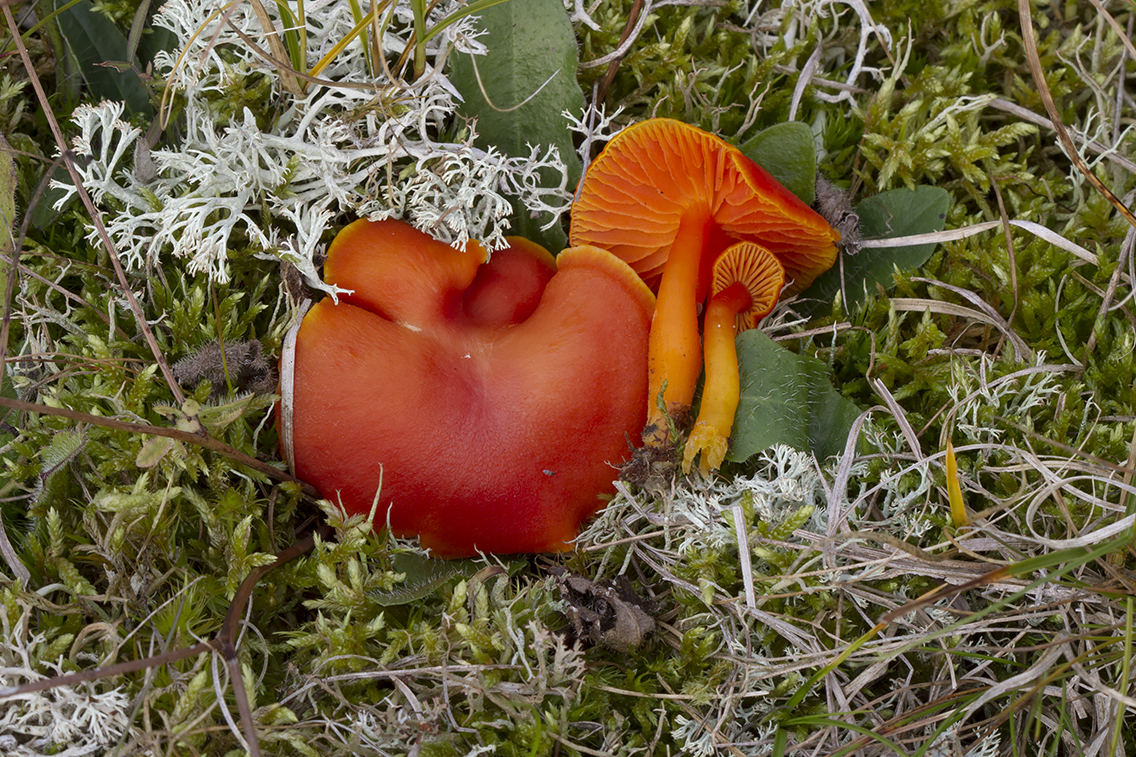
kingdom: Fungi
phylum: Basidiomycota
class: Agaricomycetes
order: Agaricales
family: Hygrophoraceae
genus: Hygrocybe
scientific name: Hygrocybe miniata
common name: mønje-vokshat
